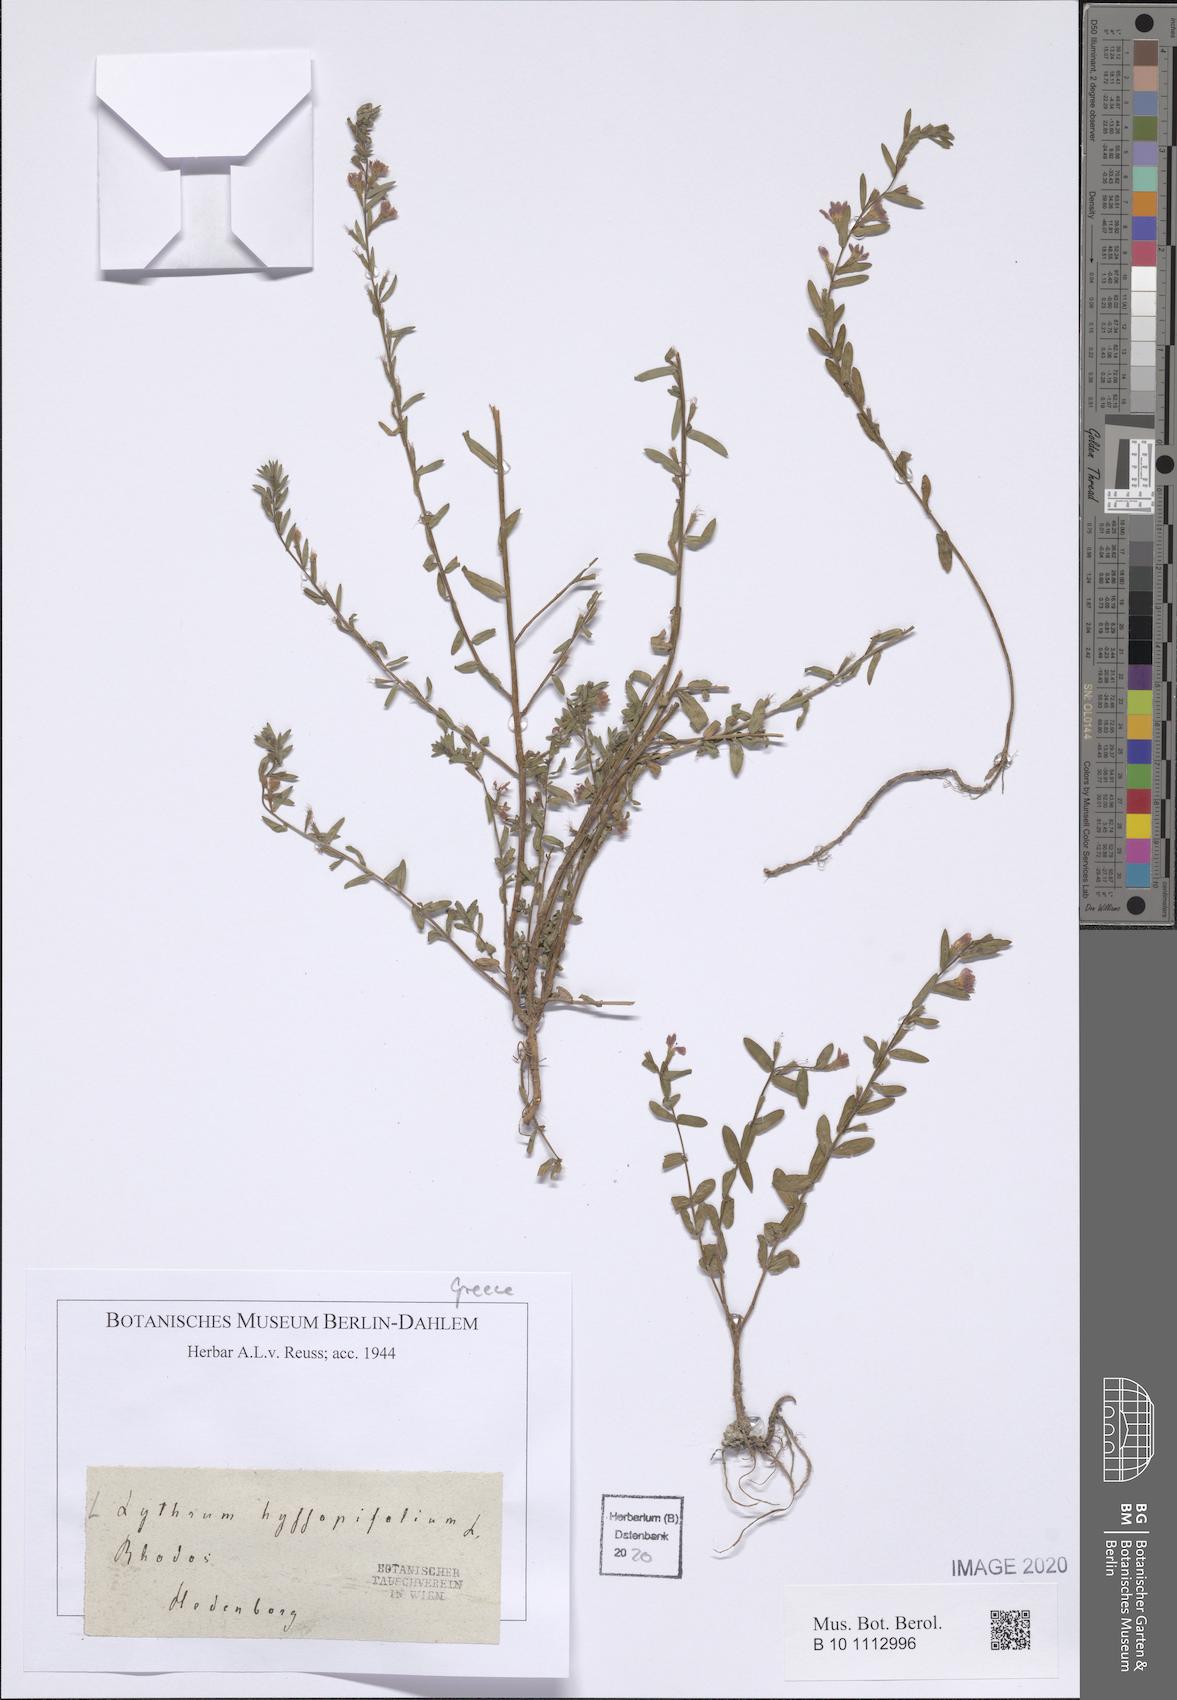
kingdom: Plantae
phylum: Tracheophyta
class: Magnoliopsida
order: Myrtales
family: Lythraceae
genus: Lythrum
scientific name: Lythrum hyssopifolia
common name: Grass-poly
